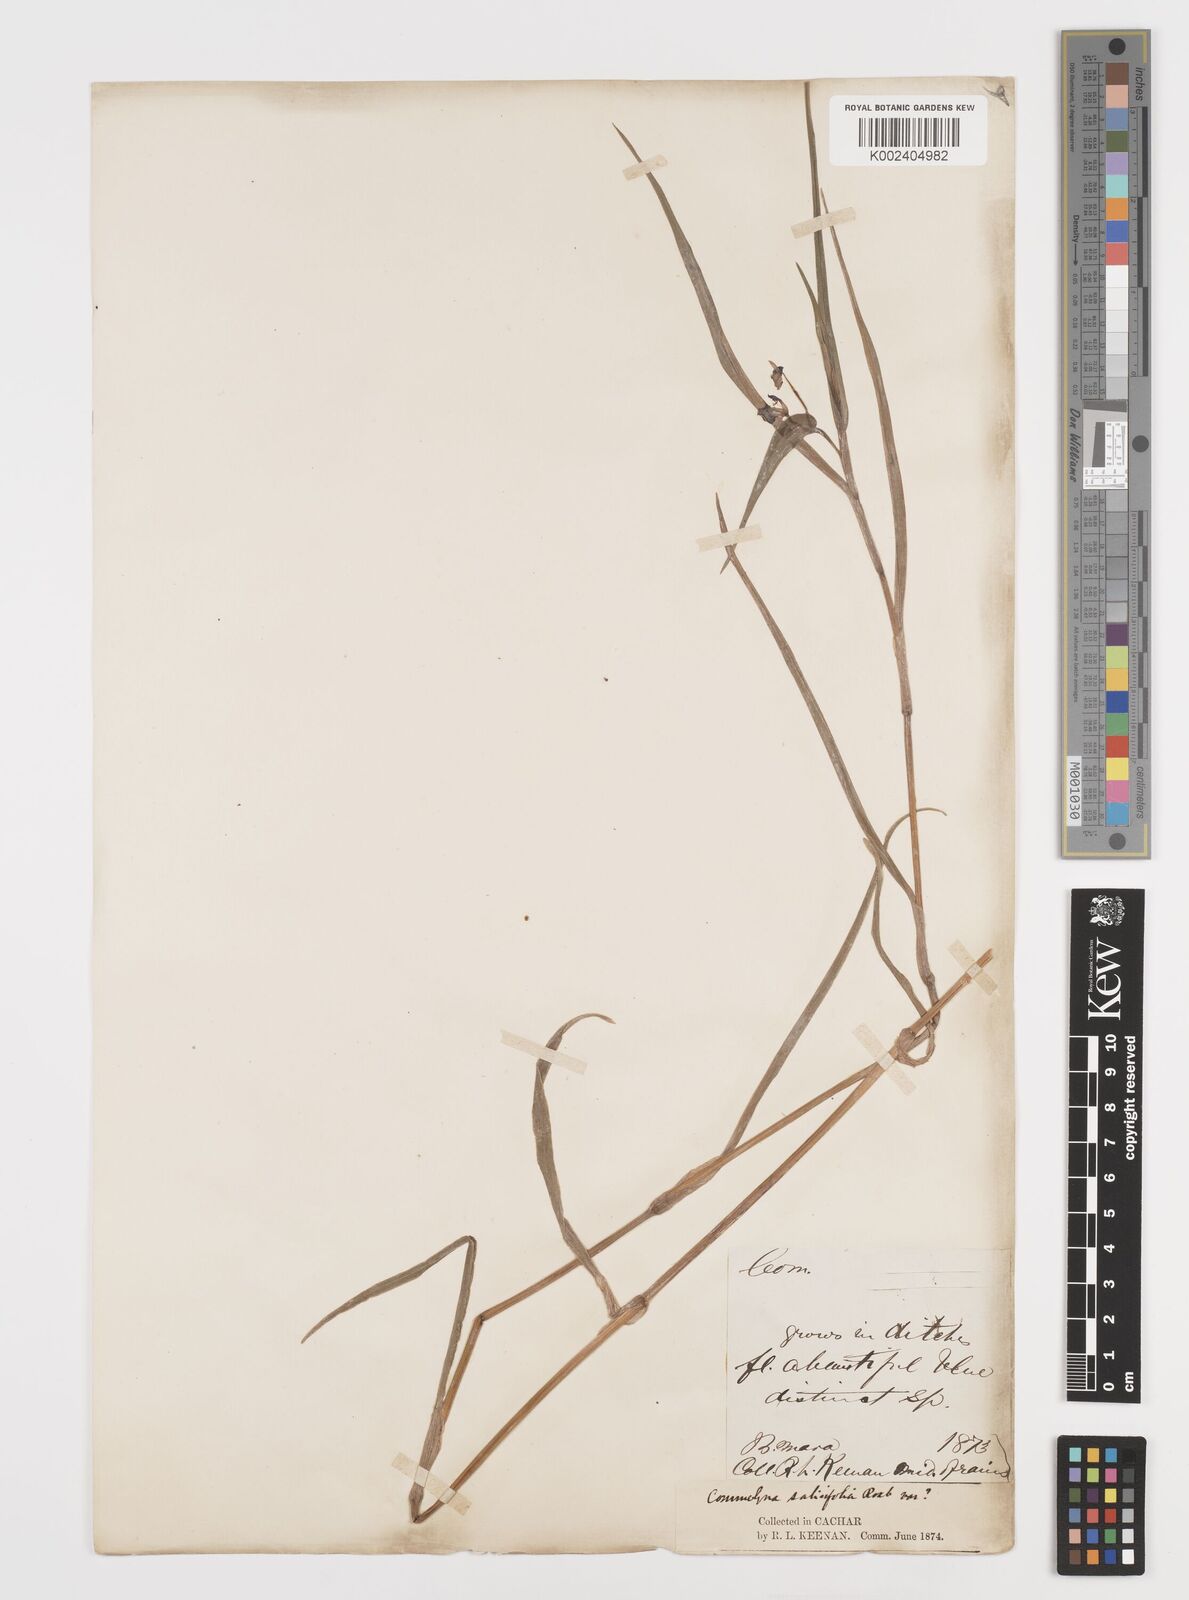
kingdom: Plantae
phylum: Tracheophyta
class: Liliopsida
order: Commelinales
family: Commelinaceae
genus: Commelina
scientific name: Commelina undulata
